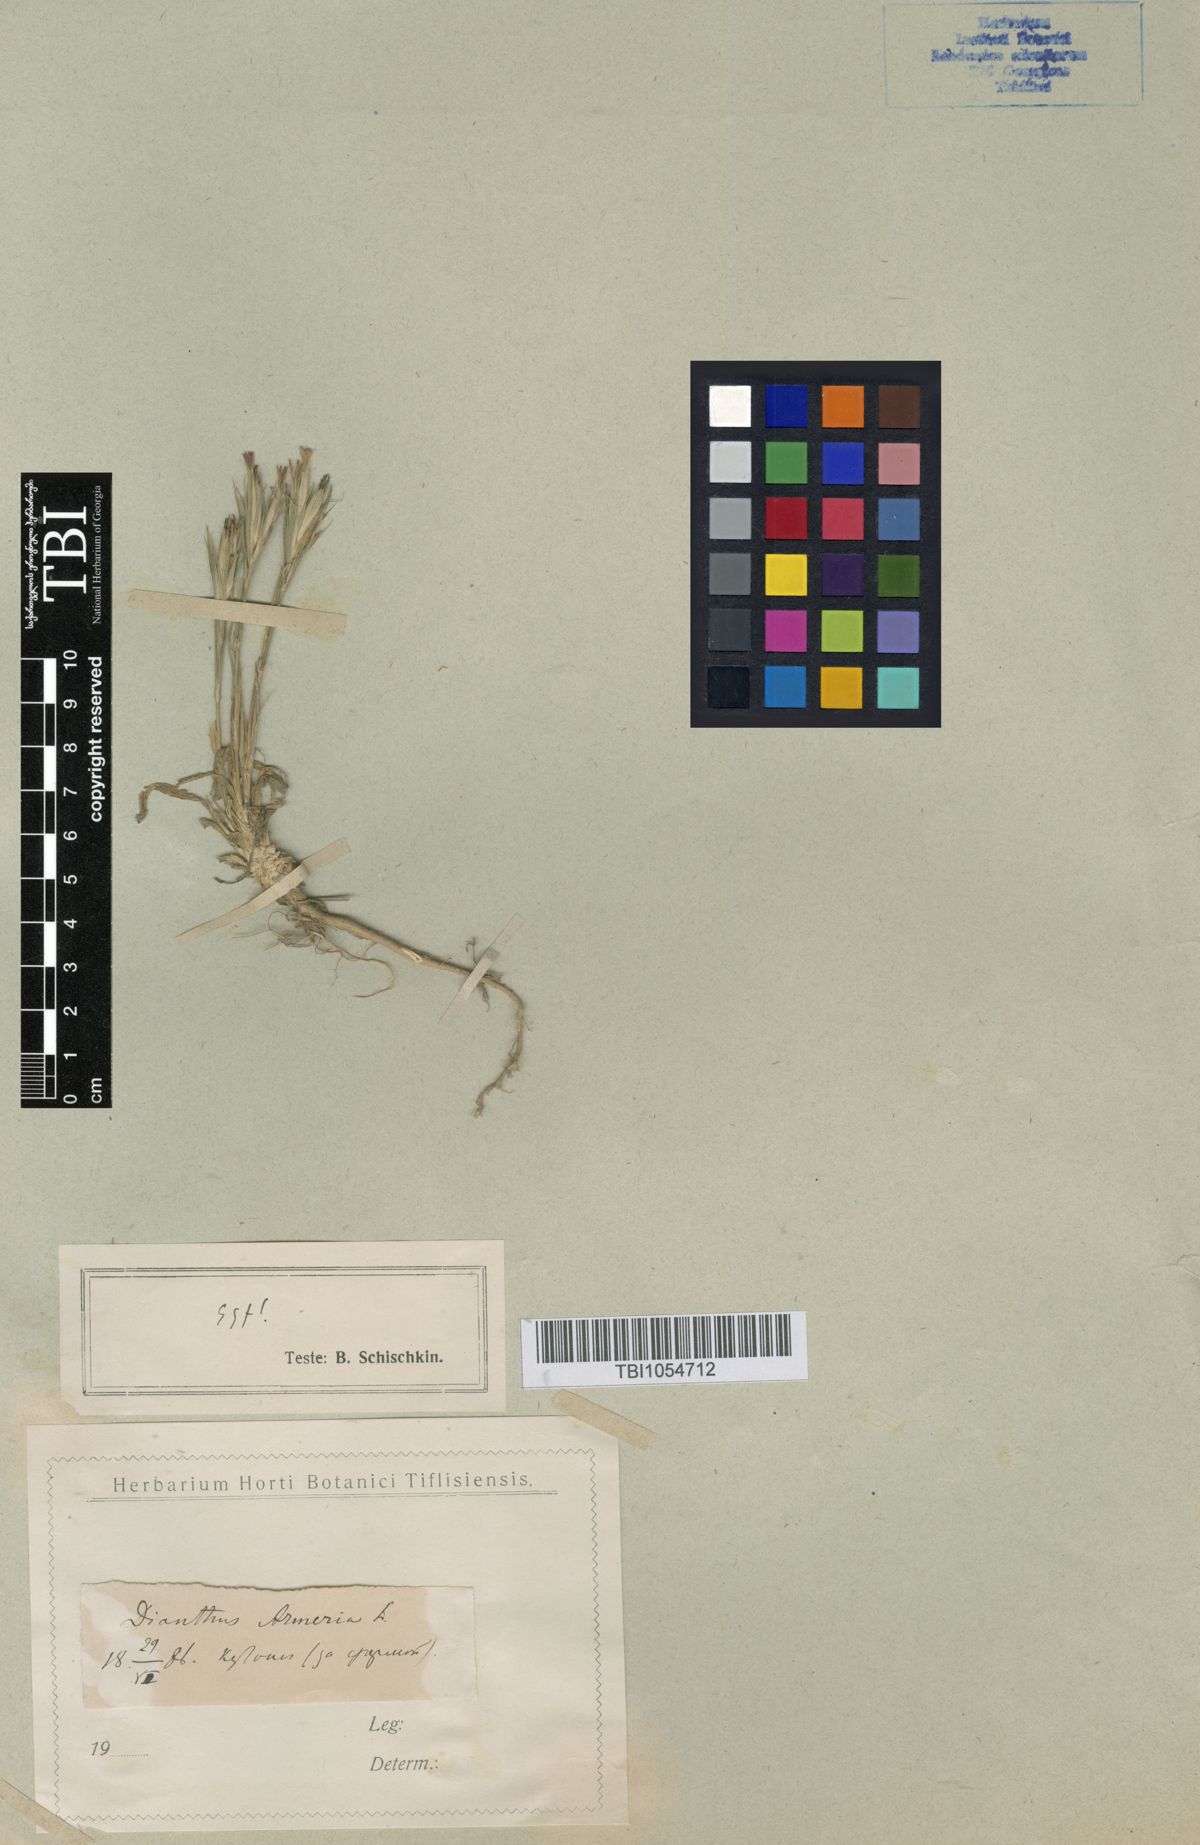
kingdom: Plantae
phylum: Tracheophyta
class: Magnoliopsida
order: Caryophyllales
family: Caryophyllaceae
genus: Dianthus
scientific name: Dianthus armeria
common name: Deptford pink
